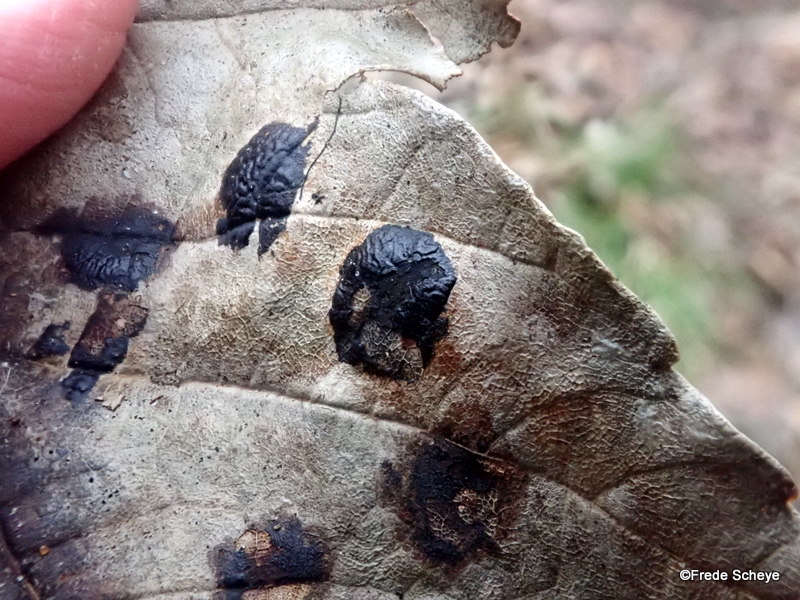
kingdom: Fungi
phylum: Ascomycota
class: Leotiomycetes
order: Rhytismatales
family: Rhytismataceae
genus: Rhytisma
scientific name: Rhytisma acerinum
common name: ahorn-rynkeplet
